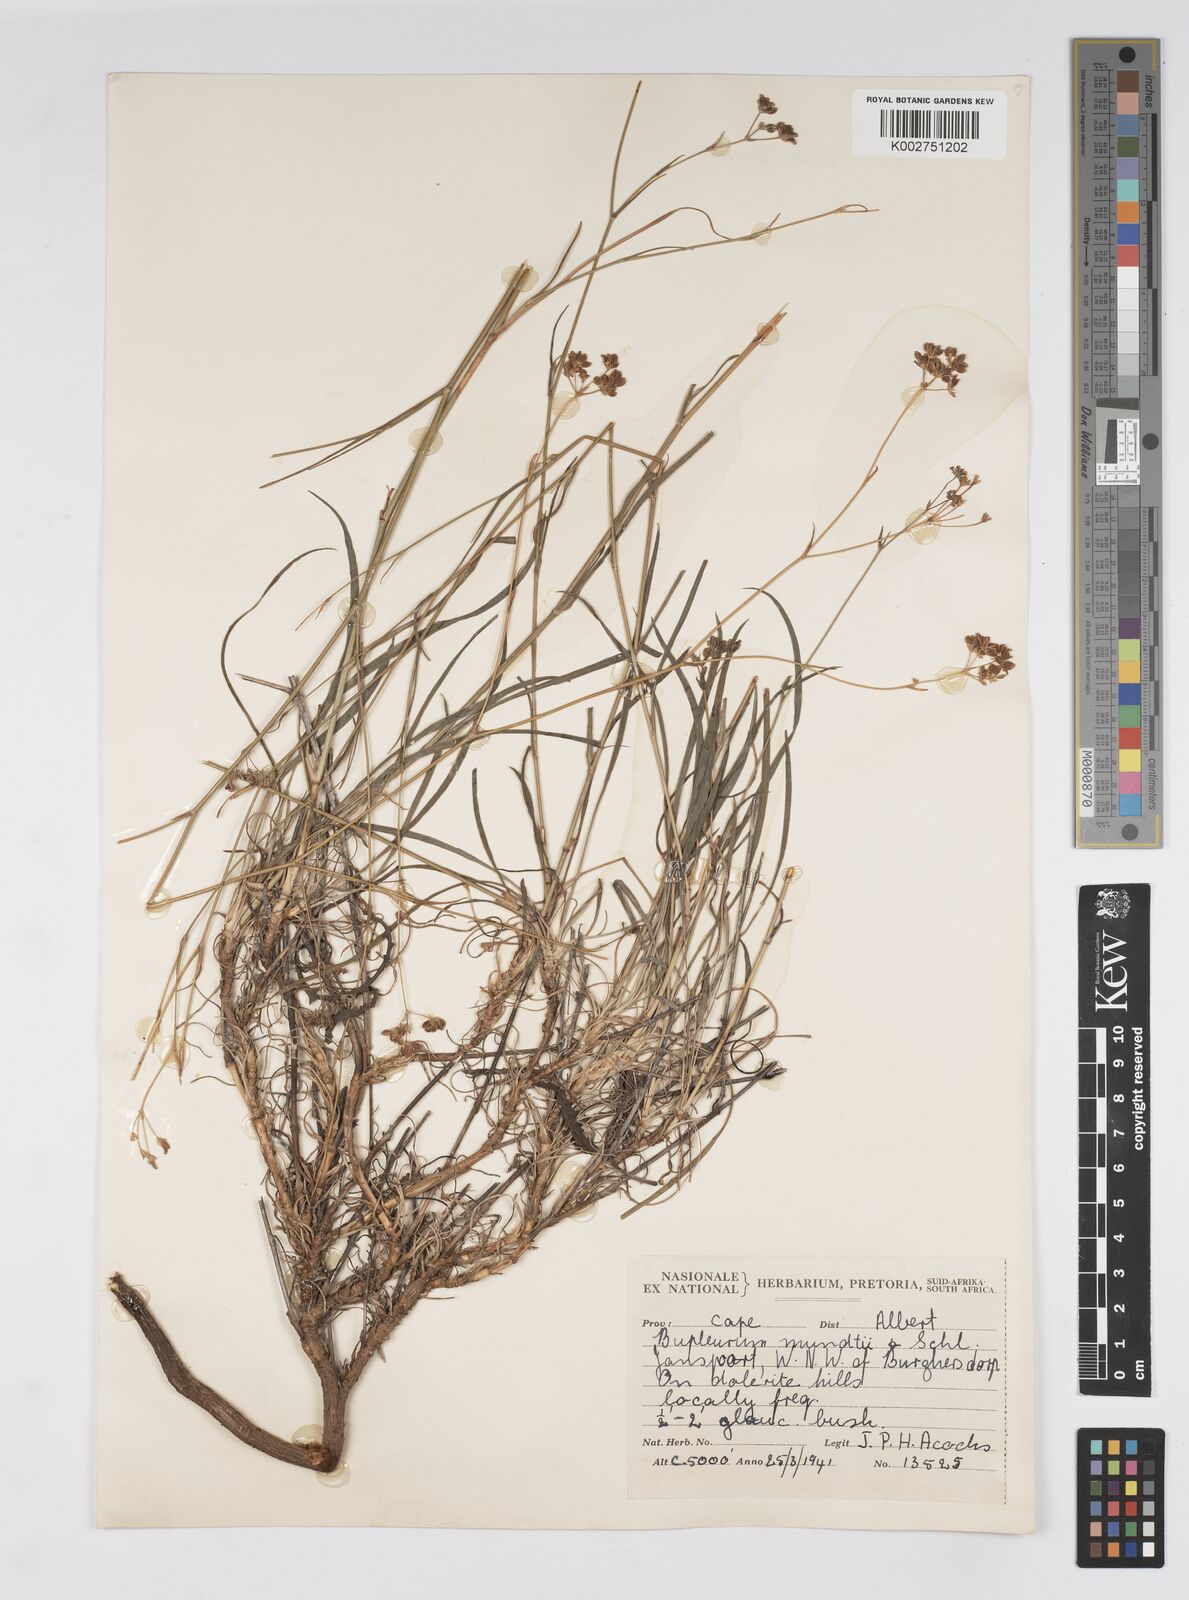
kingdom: Plantae
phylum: Tracheophyta
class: Magnoliopsida
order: Apiales
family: Apiaceae
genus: Bupleurum
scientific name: Bupleurum mundii
